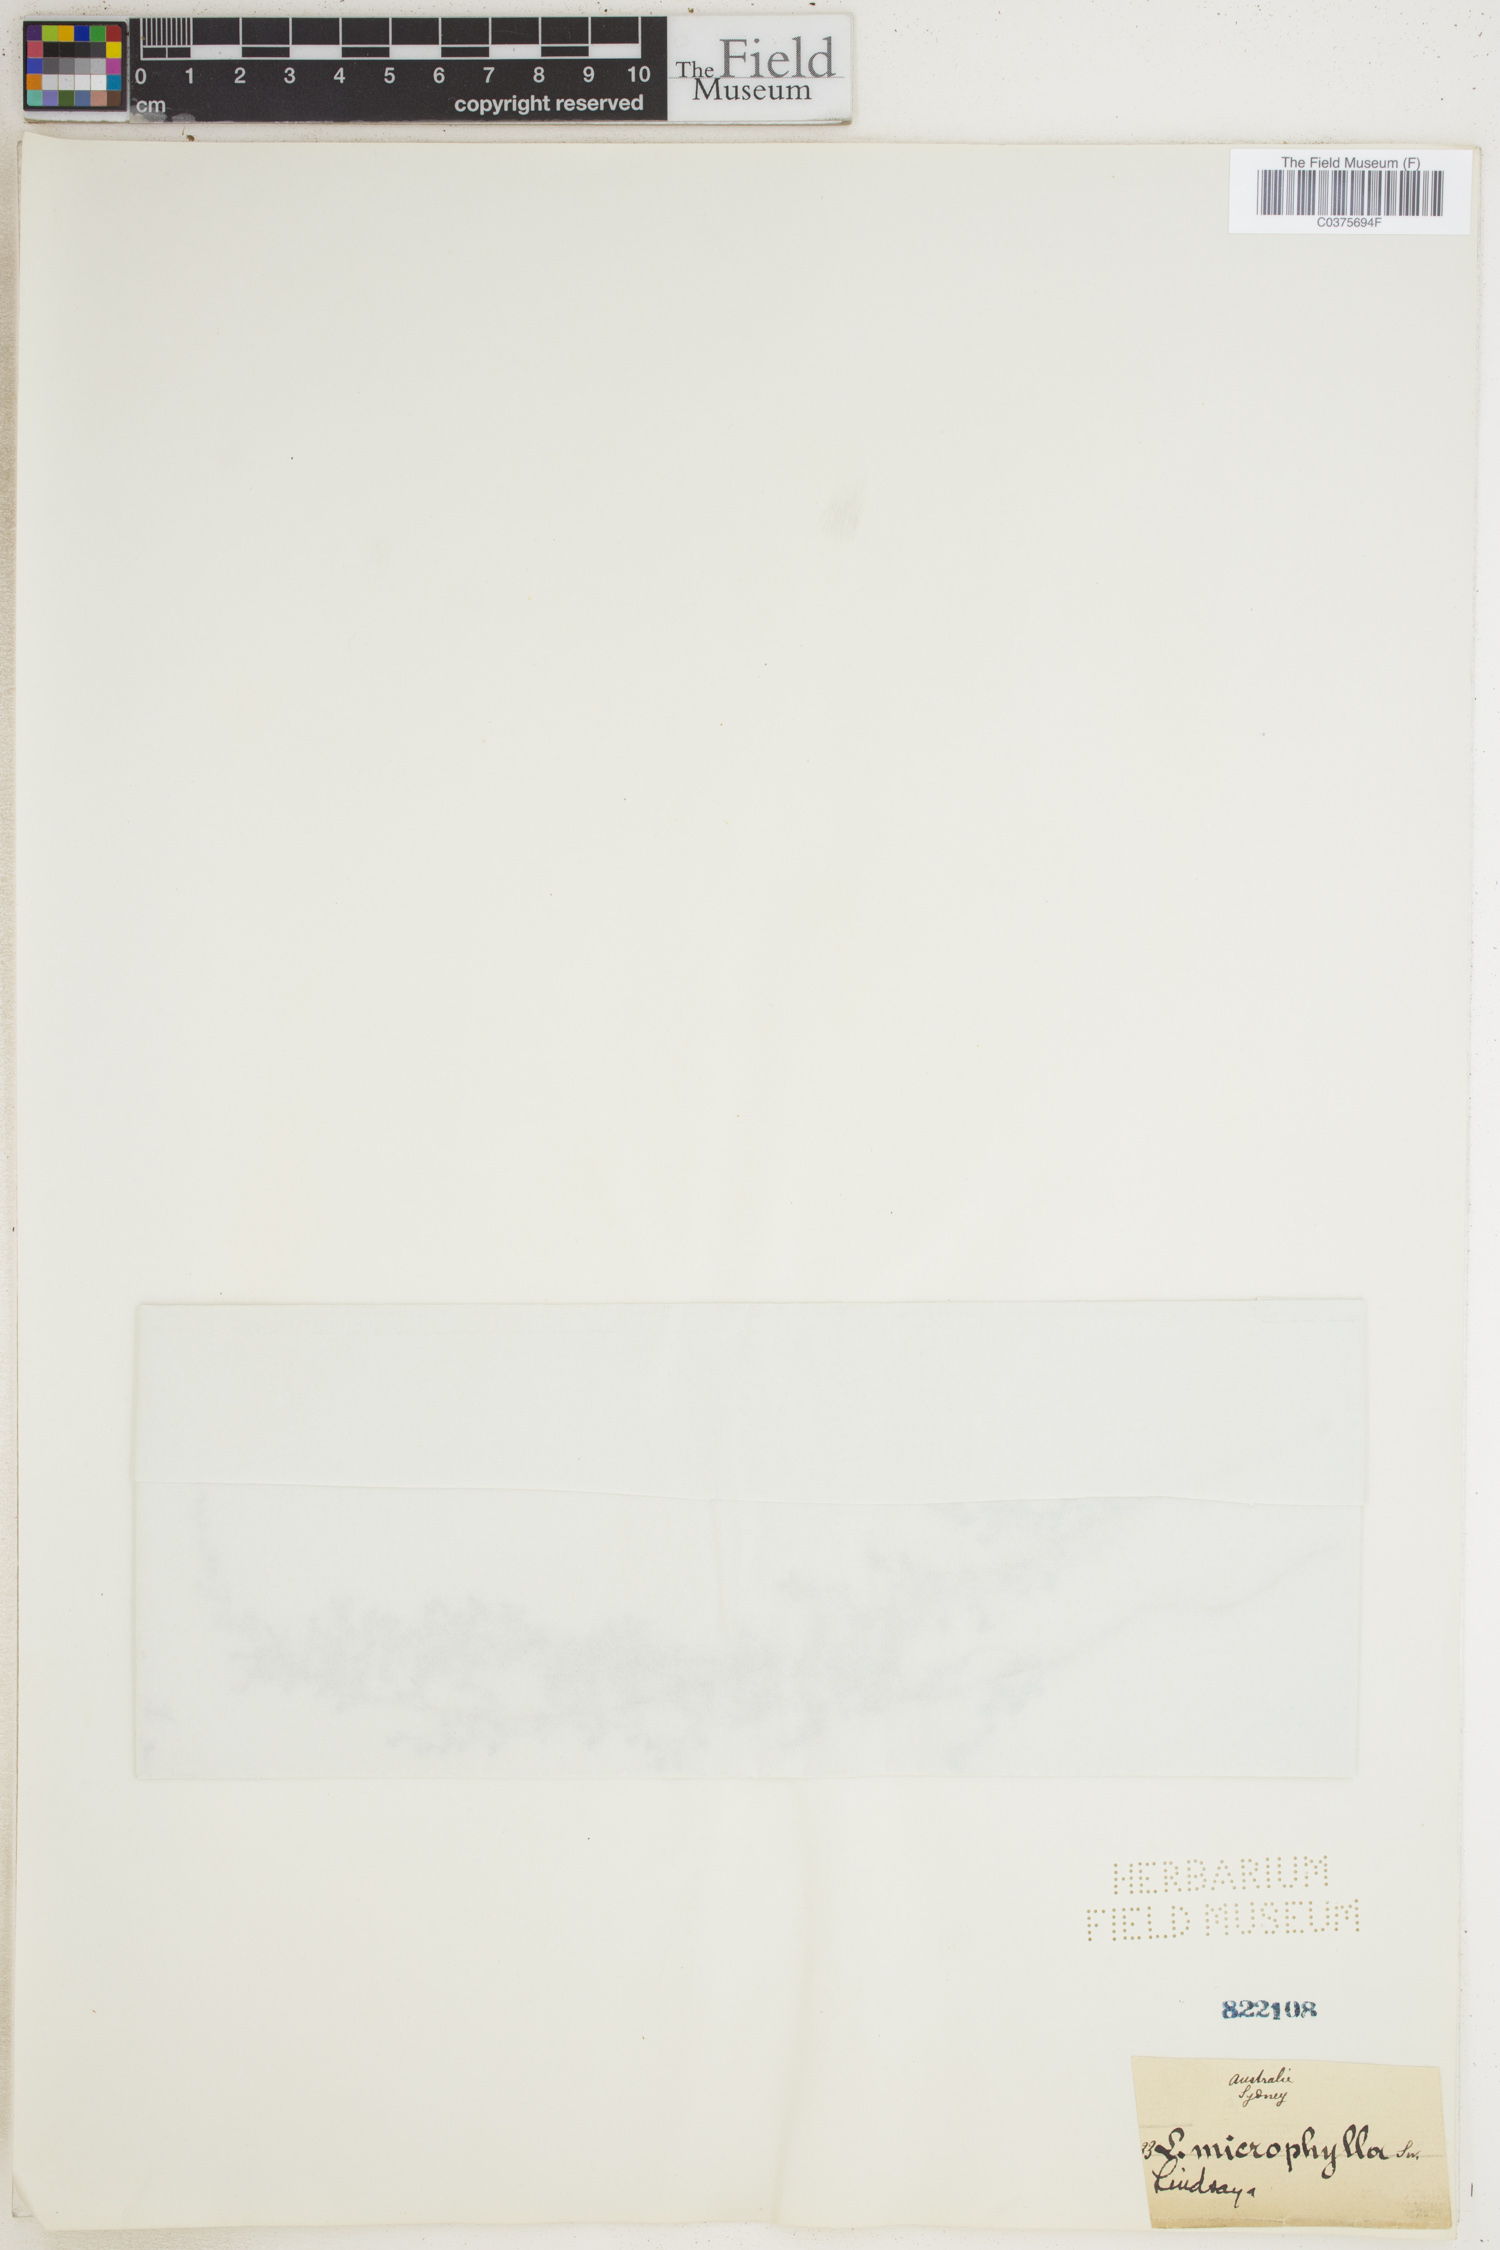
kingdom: Plantae
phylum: Tracheophyta
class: Polypodiopsida
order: Polypodiales
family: Lindsaeaceae
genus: Lindsaea
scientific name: Lindsaea stricta
